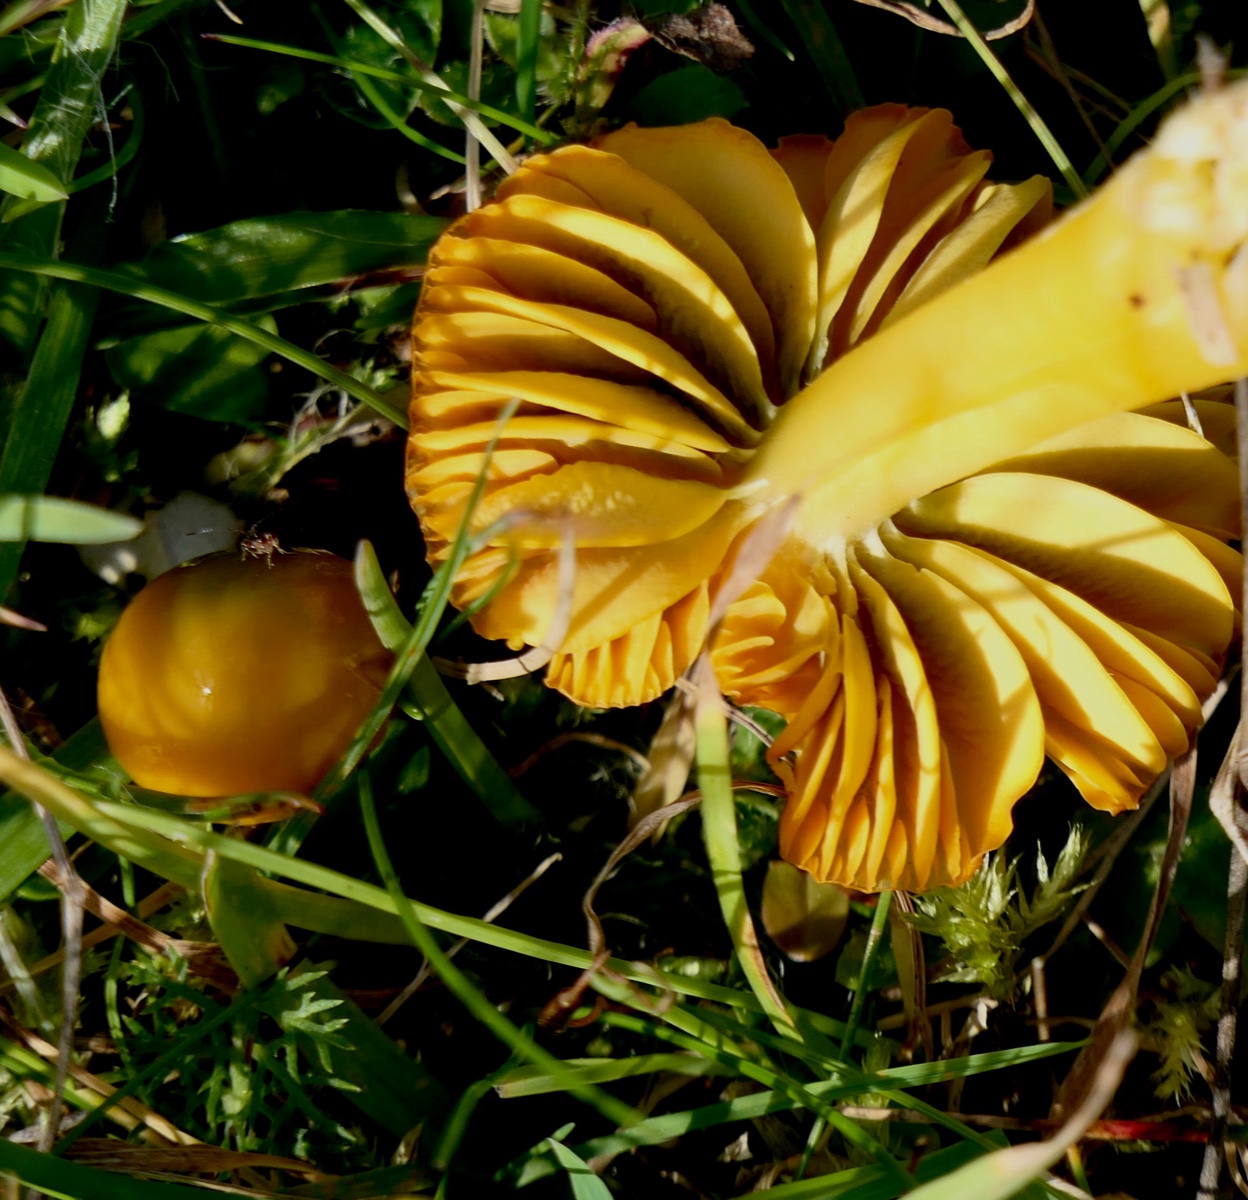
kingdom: Fungi
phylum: Basidiomycota
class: Agaricomycetes
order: Agaricales
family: Hygrophoraceae
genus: Gliophorus
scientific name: Gliophorus psittacinus
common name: papegøje-vokshat
